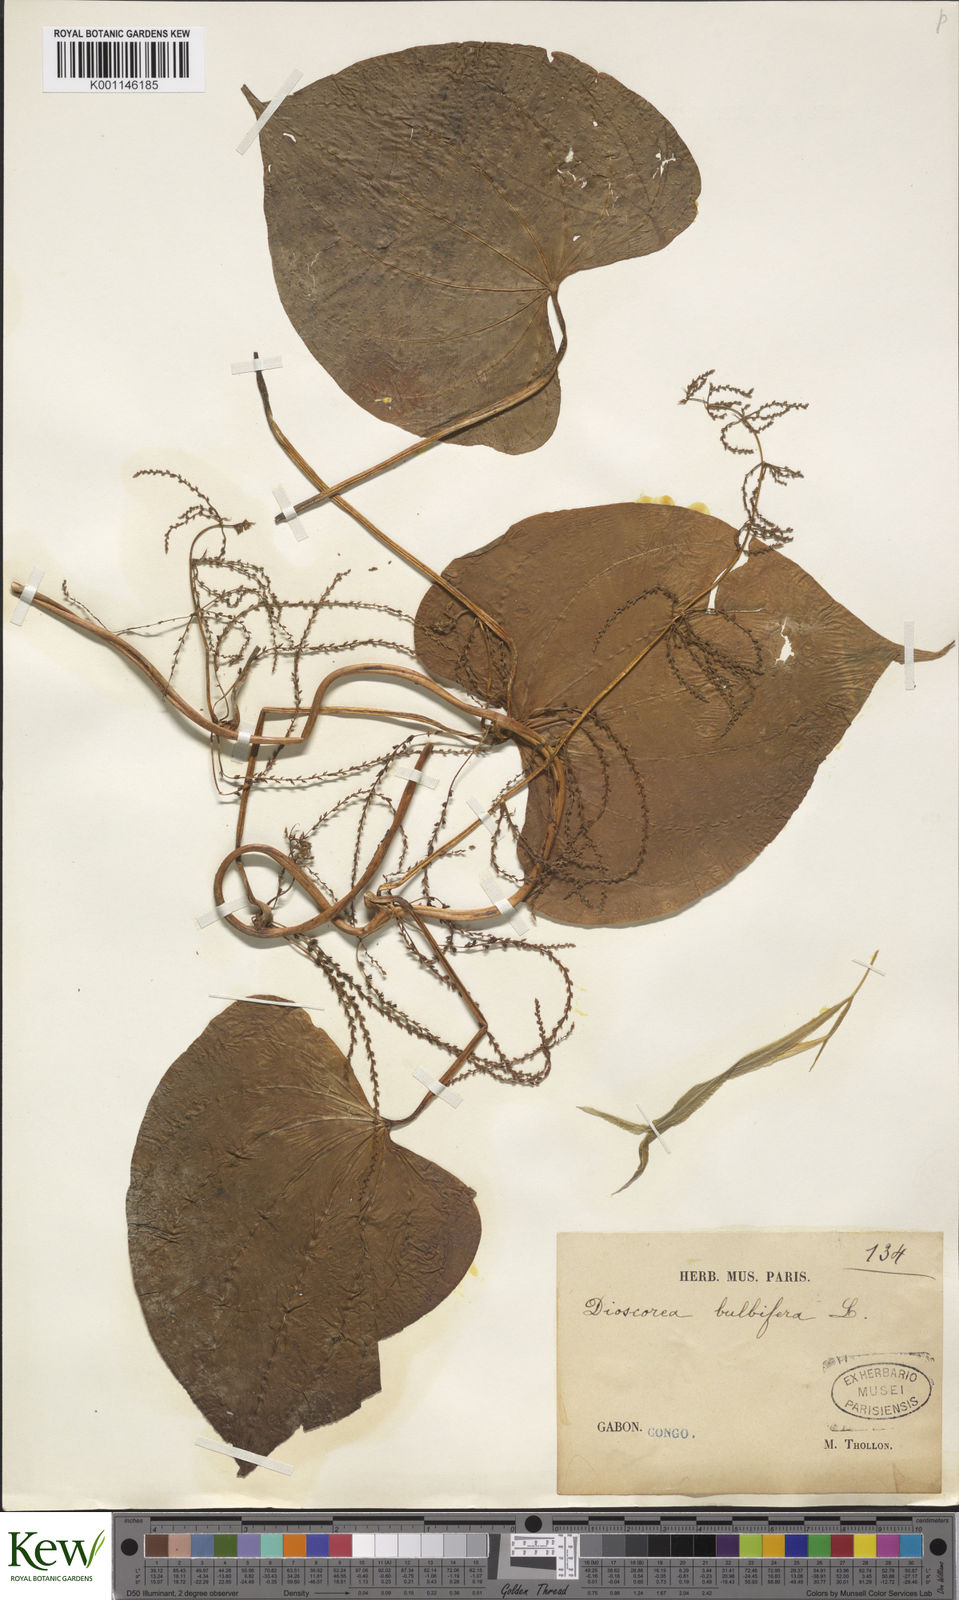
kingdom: Plantae
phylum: Tracheophyta
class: Liliopsida
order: Dioscoreales
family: Dioscoreaceae
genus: Dioscorea
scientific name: Dioscorea bulbifera
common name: Air yam
